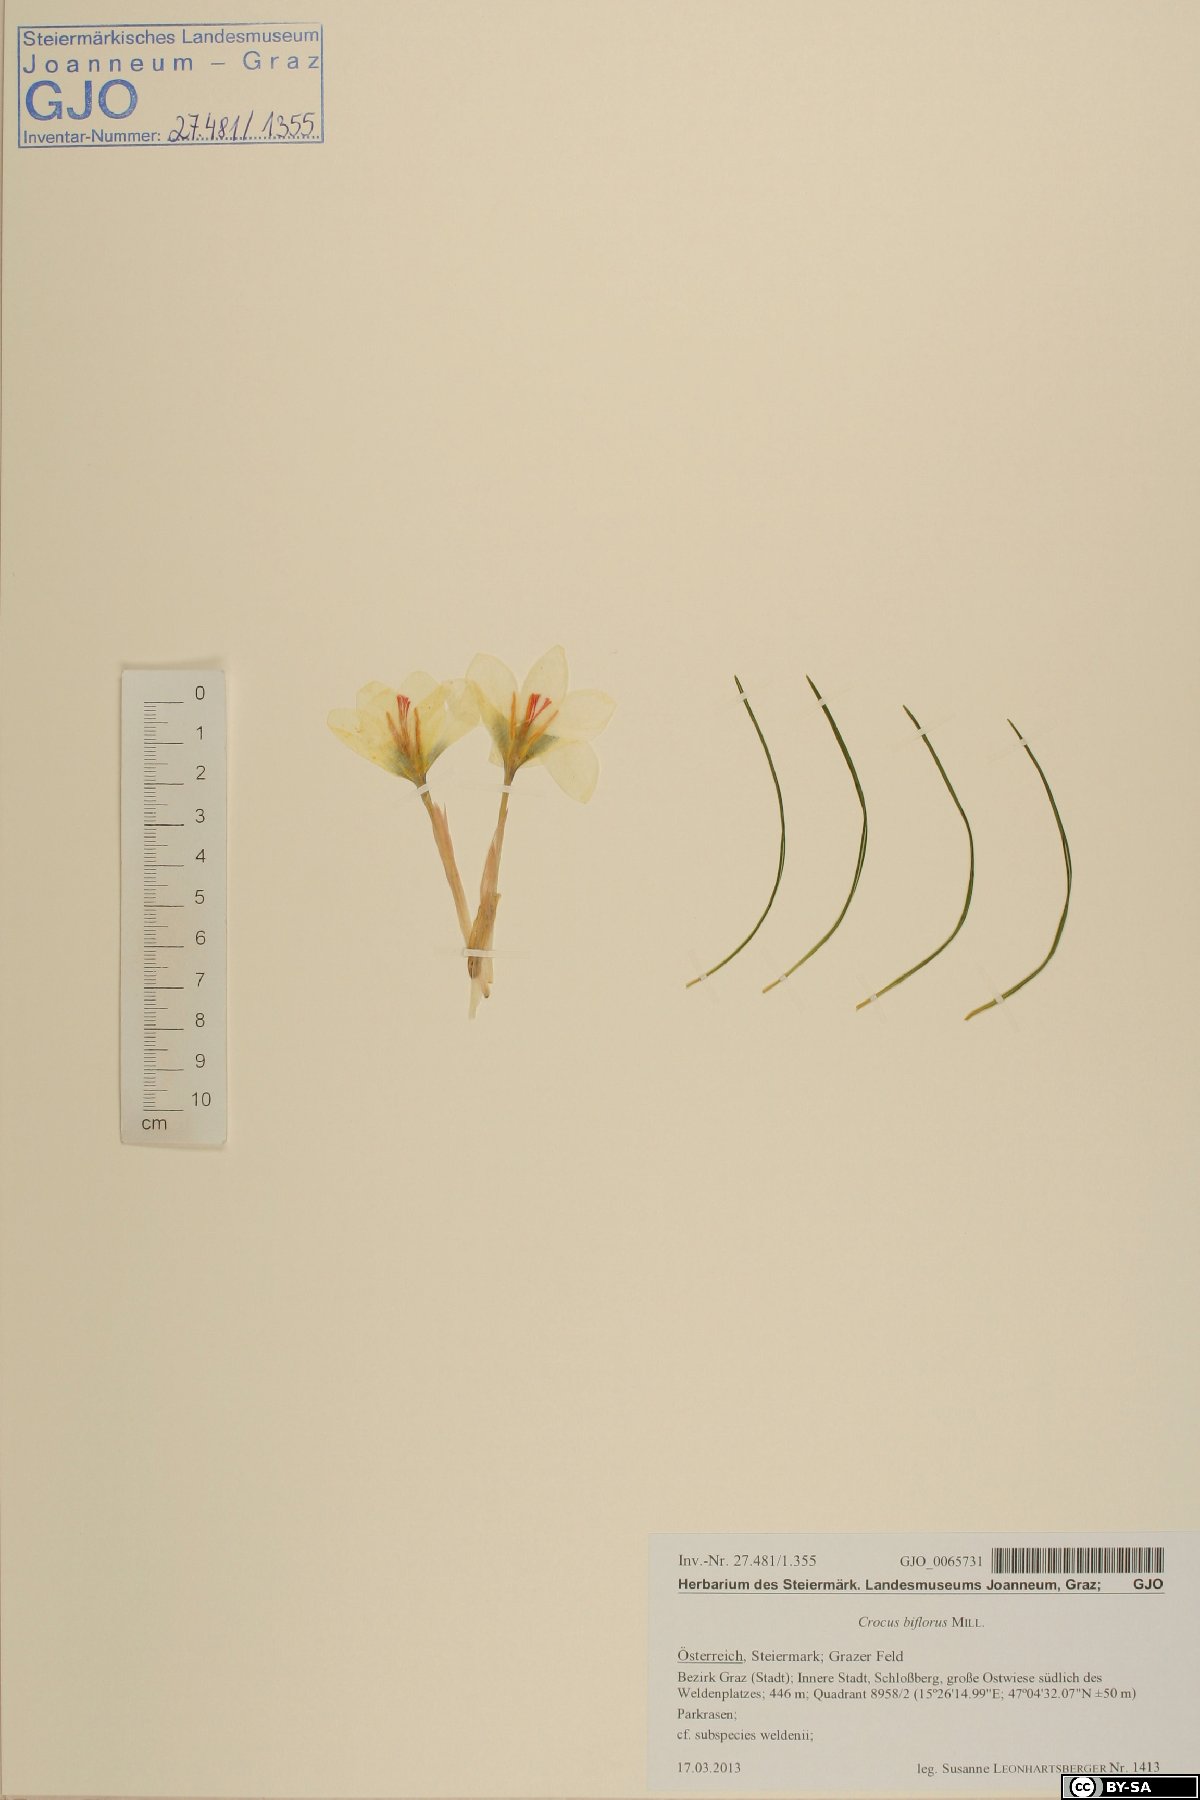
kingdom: Plantae
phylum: Tracheophyta
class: Liliopsida
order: Asparagales
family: Iridaceae
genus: Crocus
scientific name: Crocus biflorus
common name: Silvery crocus
